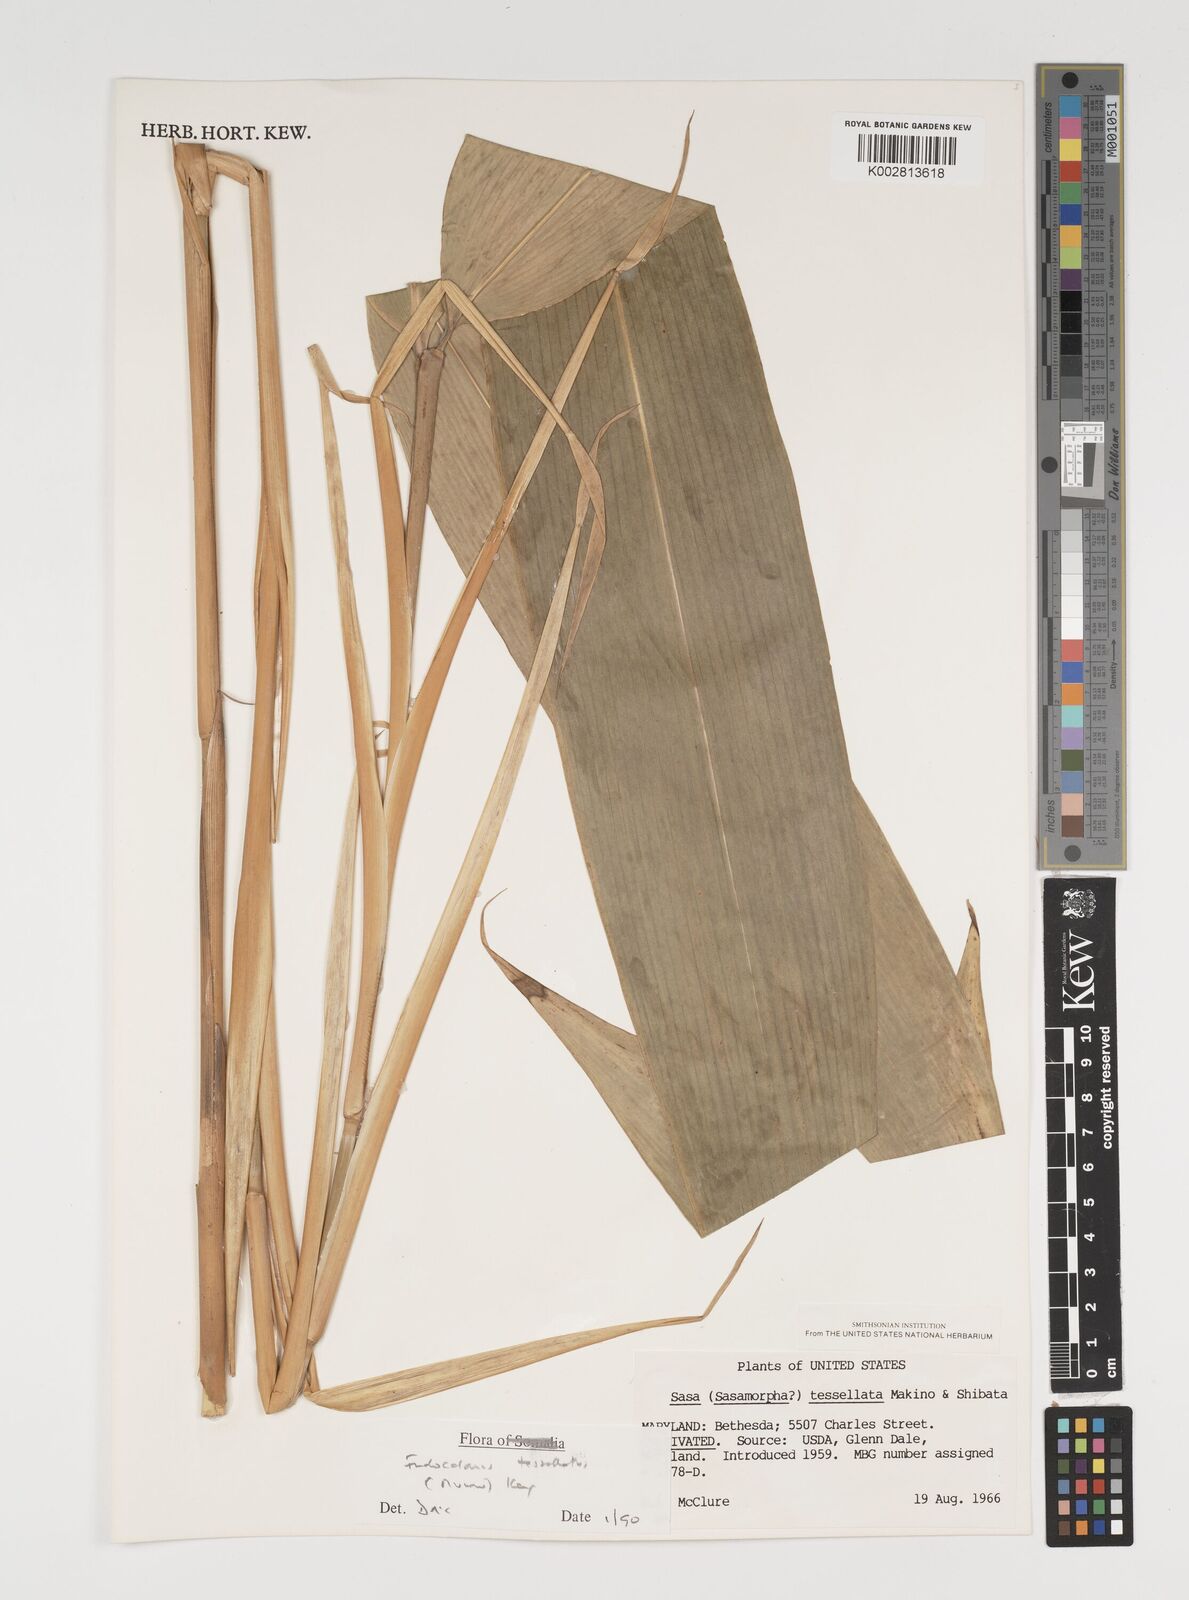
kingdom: Plantae
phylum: Tracheophyta
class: Liliopsida
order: Poales
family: Poaceae
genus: Indocalamus
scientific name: Indocalamus tessellatus
